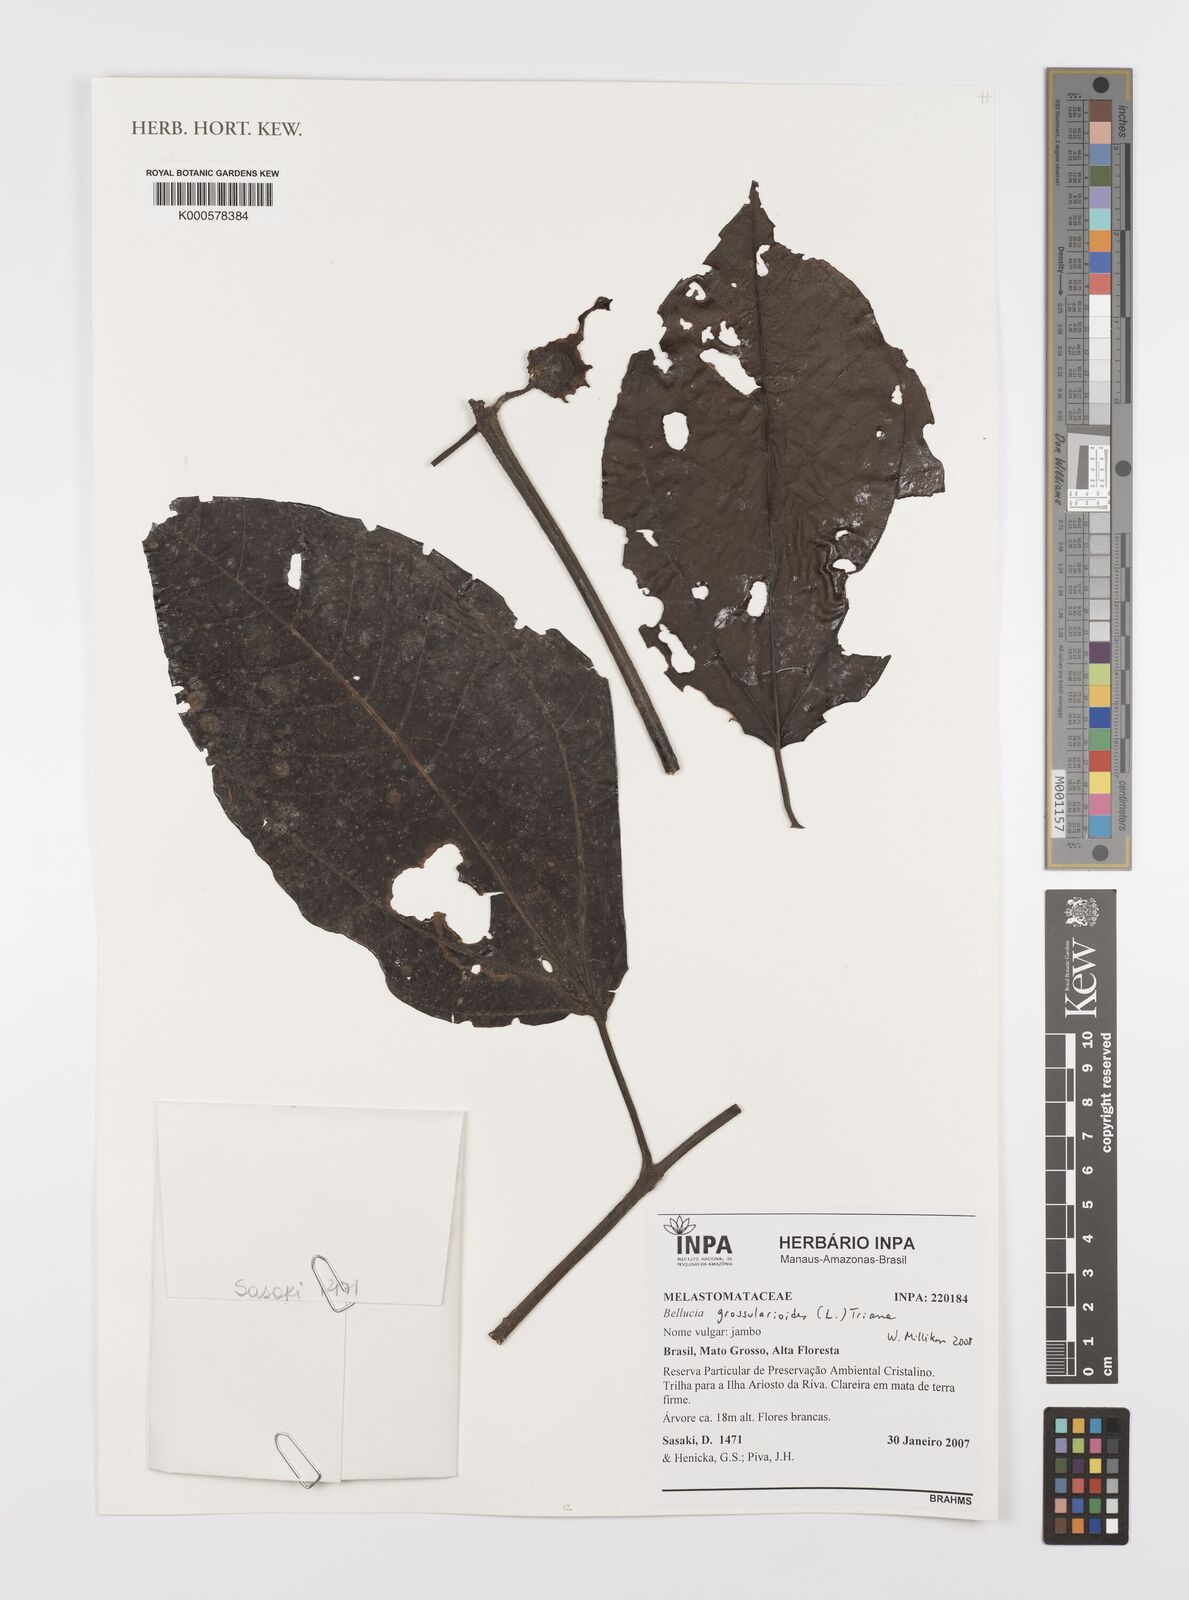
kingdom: Plantae
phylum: Tracheophyta
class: Magnoliopsida
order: Myrtales
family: Melastomataceae
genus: Bellucia
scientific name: Bellucia grossularioides
